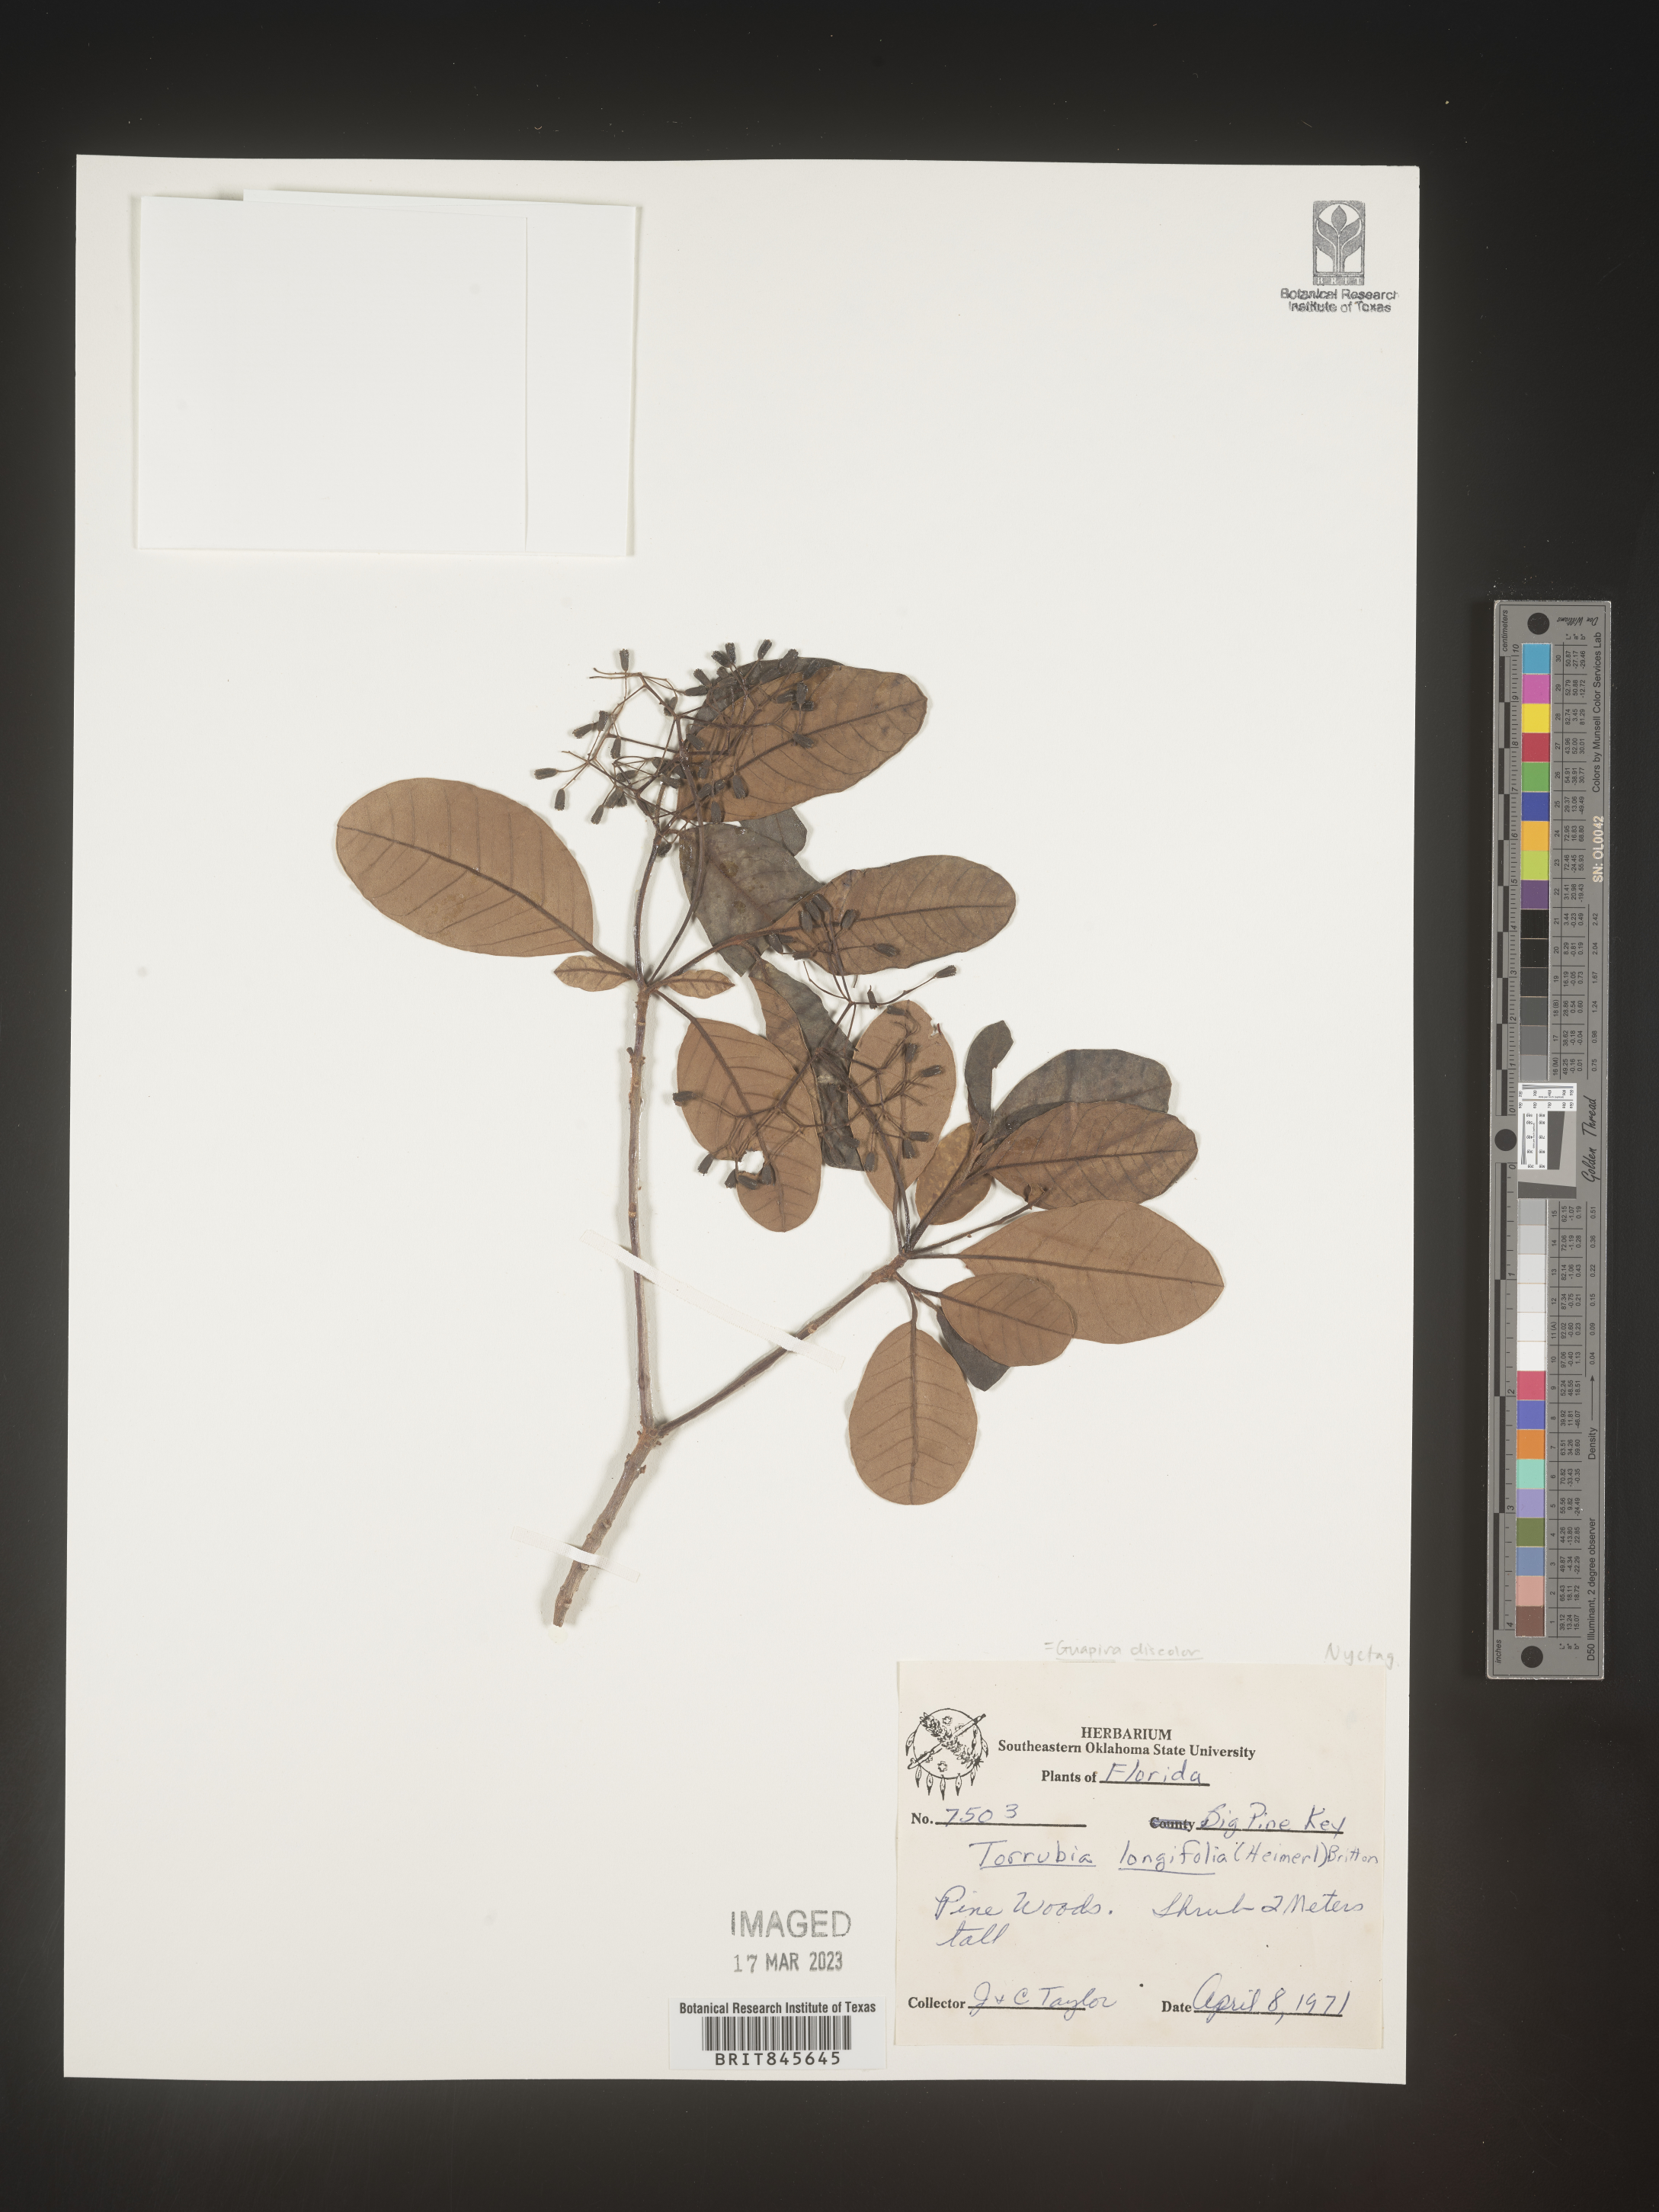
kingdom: Plantae
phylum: Tracheophyta
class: Magnoliopsida
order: Caryophyllales
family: Nyctaginaceae
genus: Guapira
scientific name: Guapira discolor
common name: Beeftree
